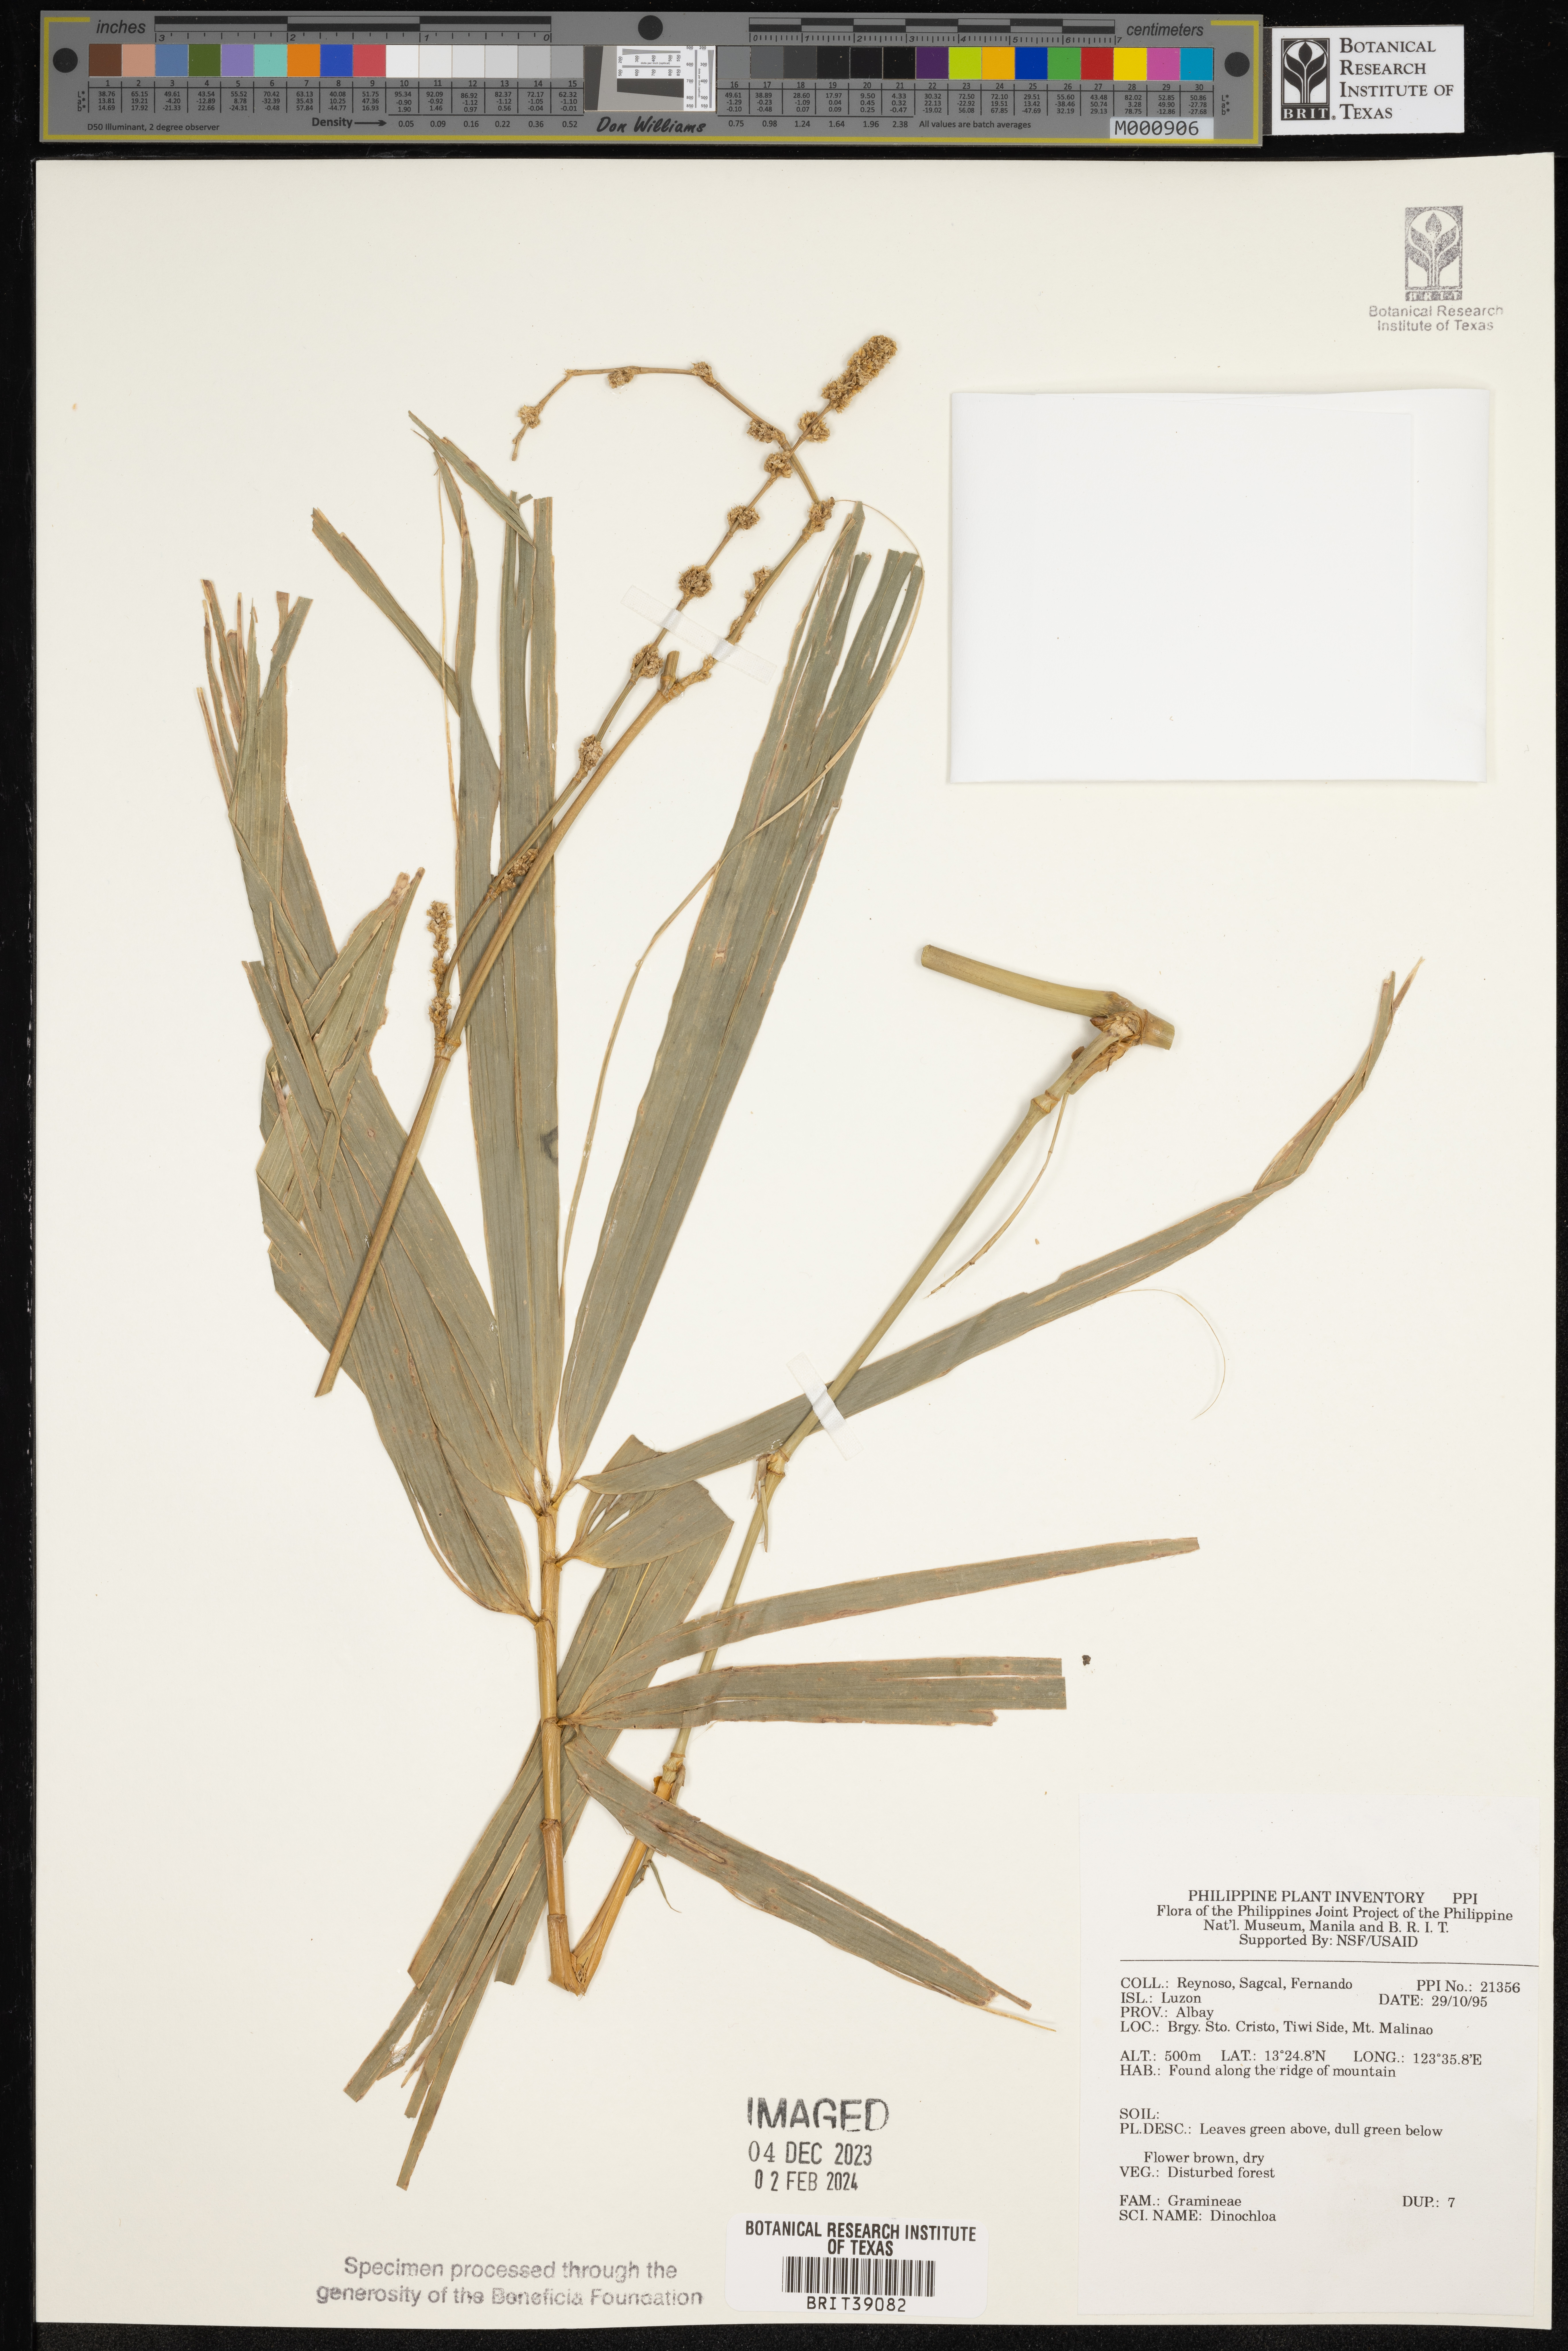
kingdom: Plantae
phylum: Tracheophyta
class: Liliopsida
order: Poales
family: Poaceae
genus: Dinochloa
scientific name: Dinochloa
